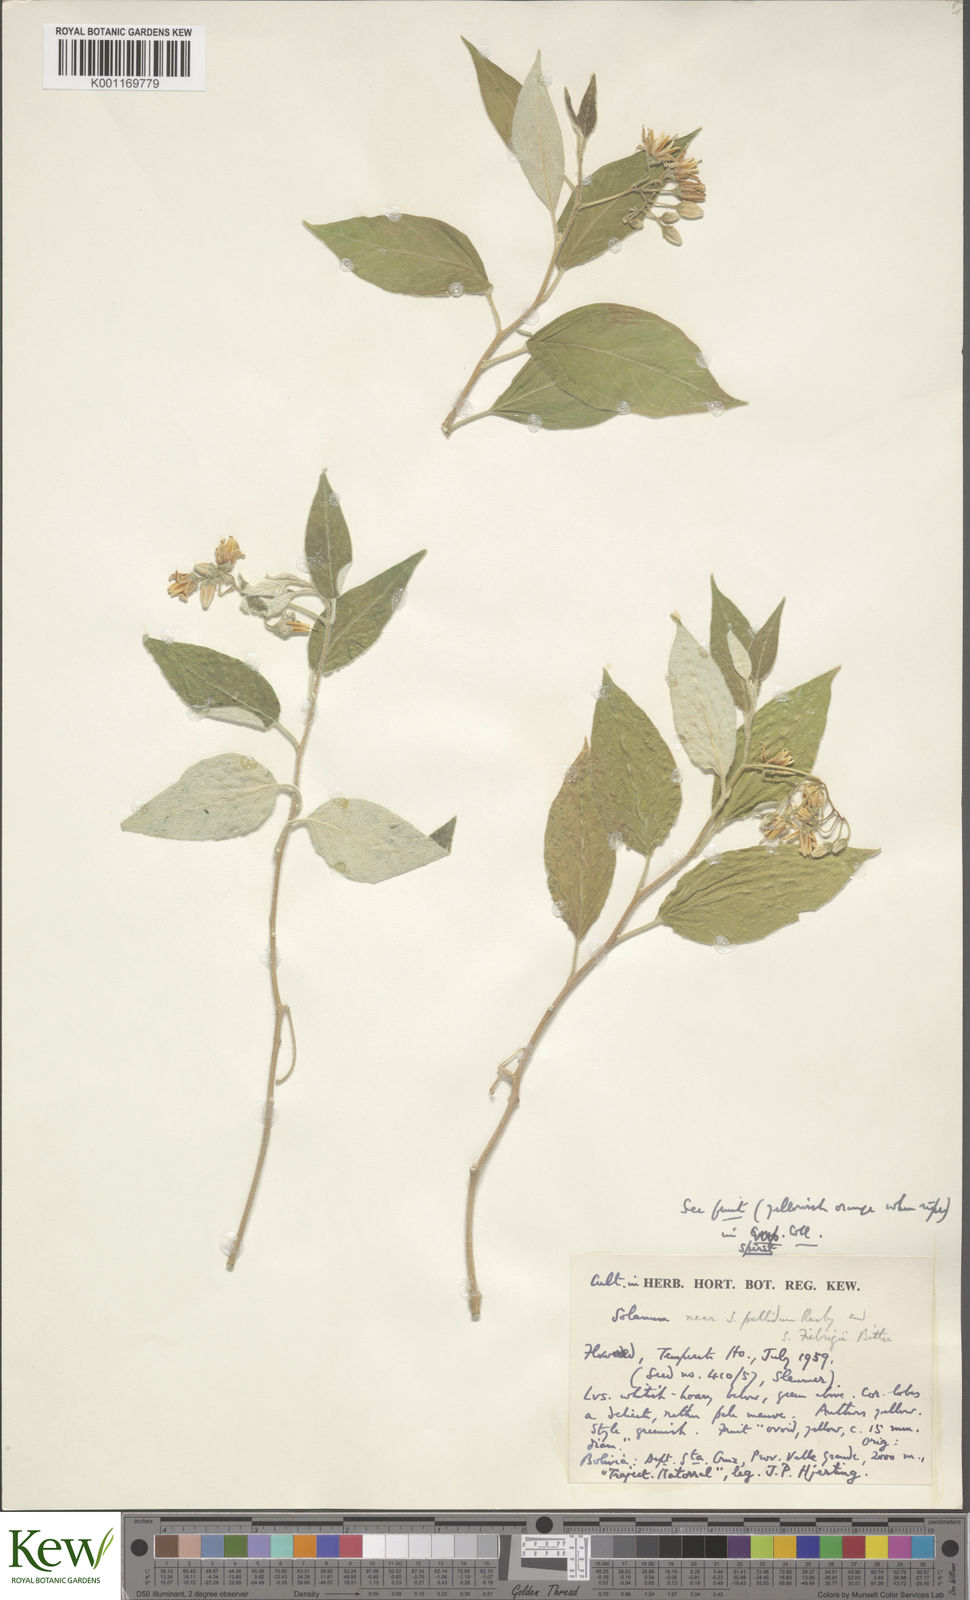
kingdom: Plantae
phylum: Tracheophyta
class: Magnoliopsida
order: Solanales
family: Solanaceae
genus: Solanum
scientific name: Solanum pallidum
